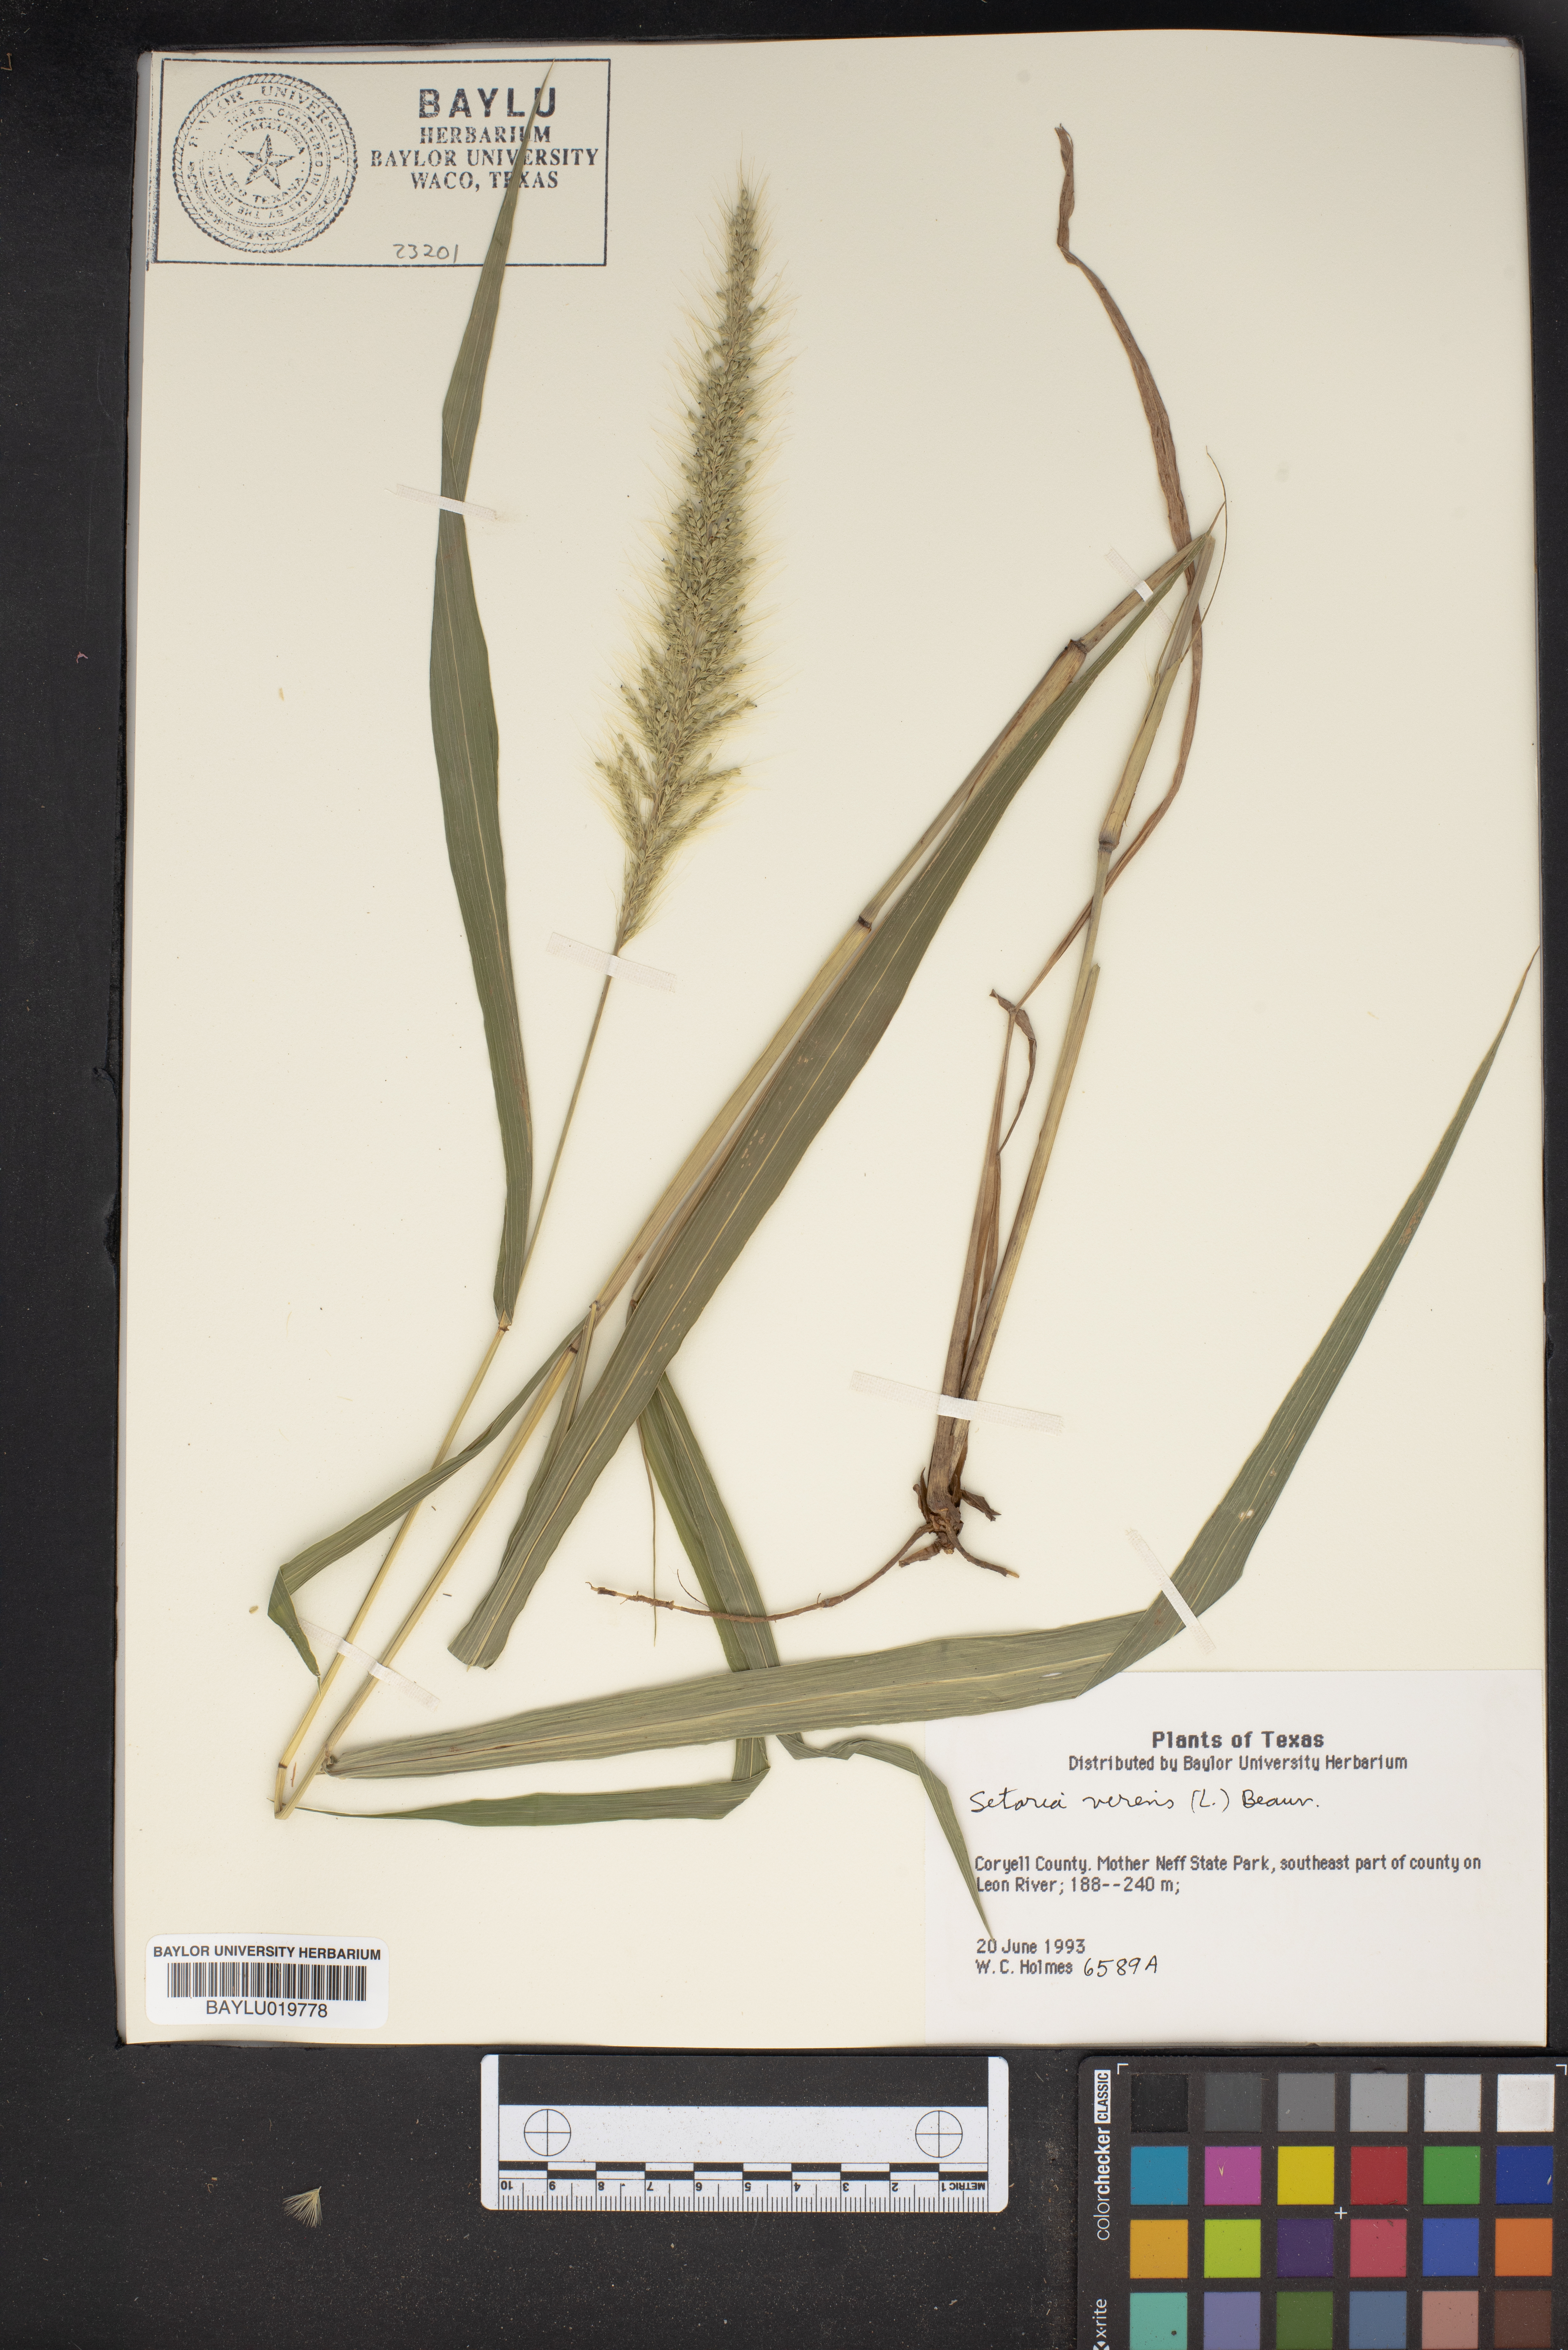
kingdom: Plantae
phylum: Tracheophyta
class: Liliopsida
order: Poales
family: Poaceae
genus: Setaria
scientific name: Setaria viridis
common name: Green bristlegrass
